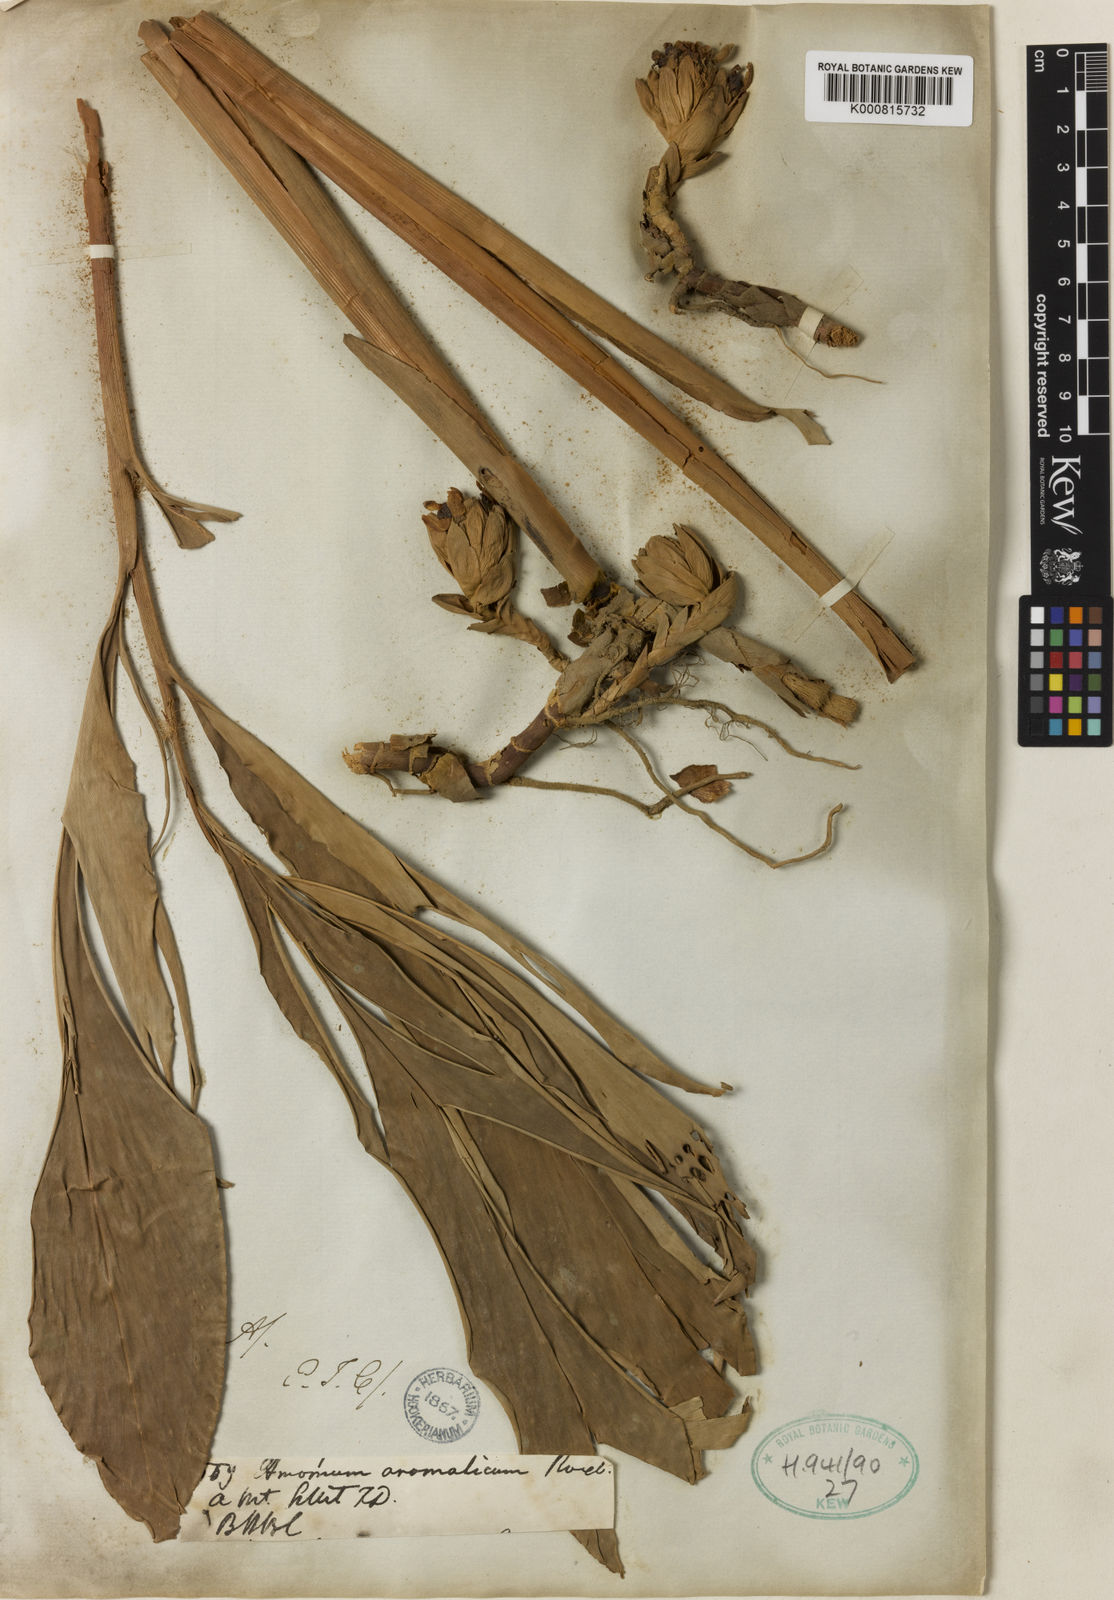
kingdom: Plantae
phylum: Tracheophyta
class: Liliopsida
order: Zingiberales
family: Zingiberaceae
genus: Wurfbainia
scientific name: Wurfbainia aromatica
